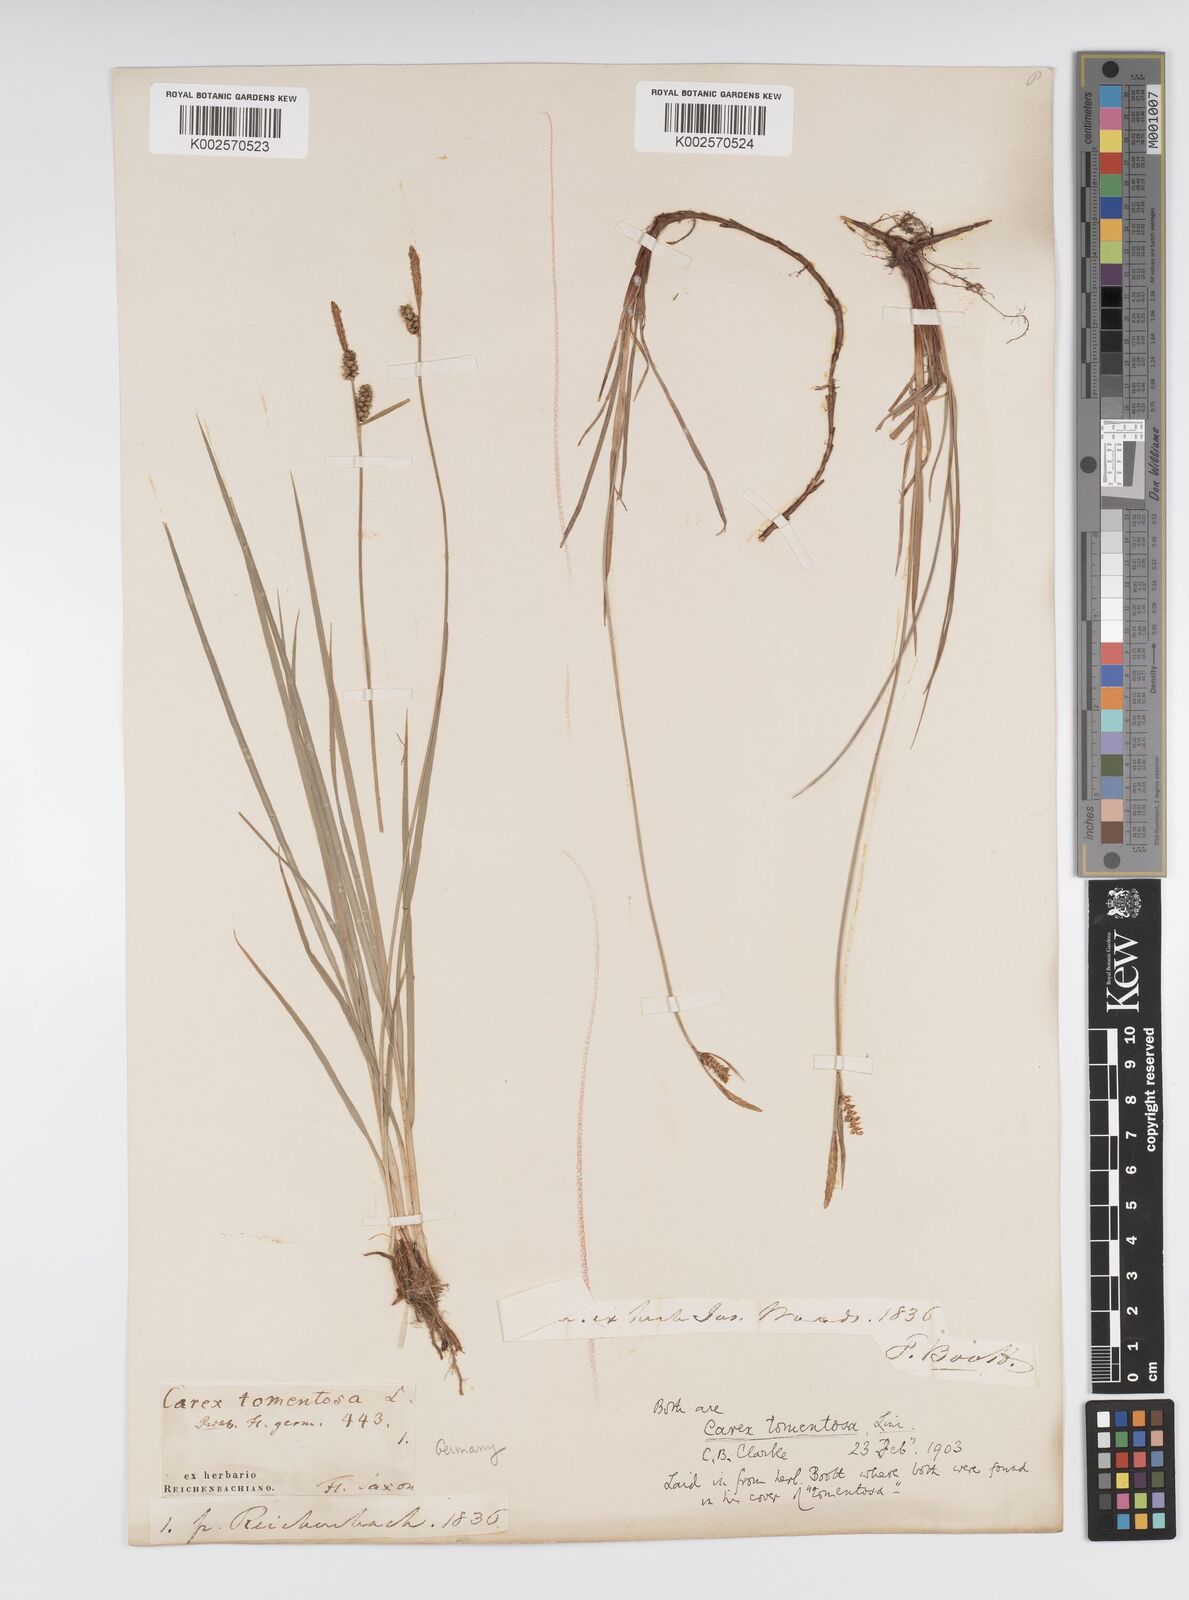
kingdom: Plantae
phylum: Tracheophyta
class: Liliopsida
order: Poales
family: Cyperaceae
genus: Carex
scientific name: Carex montana
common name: Soft-leaved sedge
